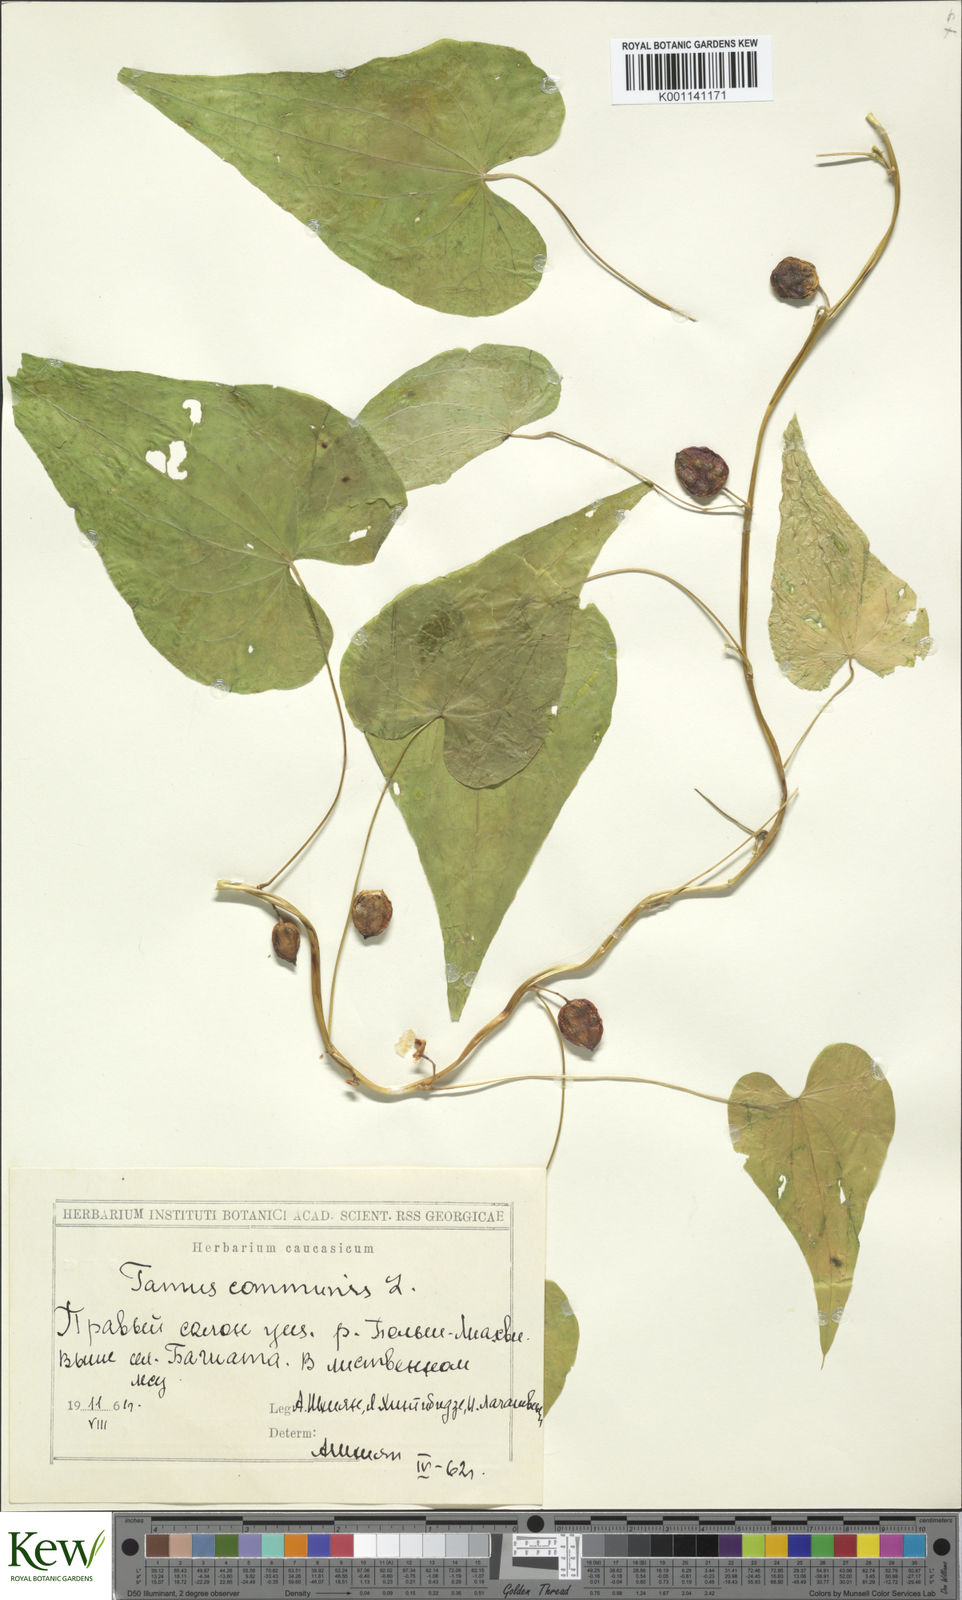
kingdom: Plantae
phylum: Tracheophyta
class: Liliopsida
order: Dioscoreales
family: Dioscoreaceae
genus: Dioscorea
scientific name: Dioscorea communis
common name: Black-bindweed
